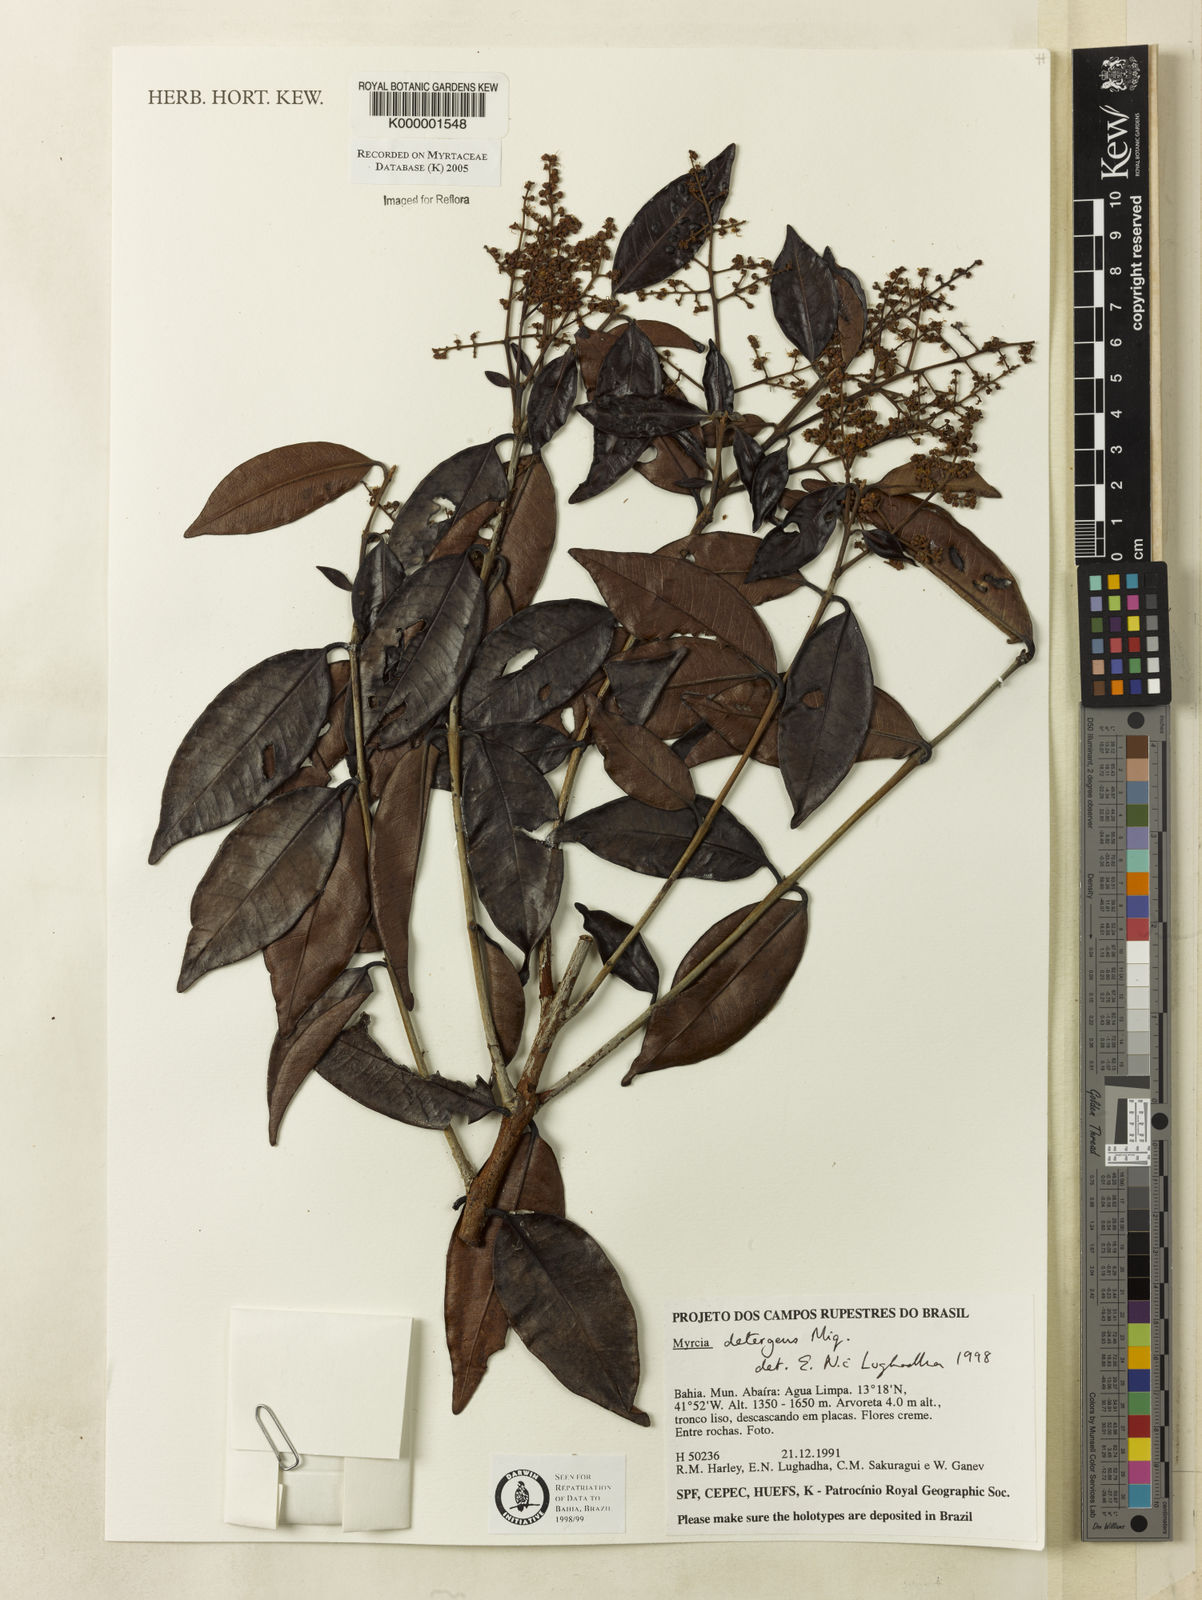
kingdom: Plantae
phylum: Tracheophyta
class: Magnoliopsida
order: Myrtales
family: Myrtaceae
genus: Myrcia
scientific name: Myrcia amazonica
